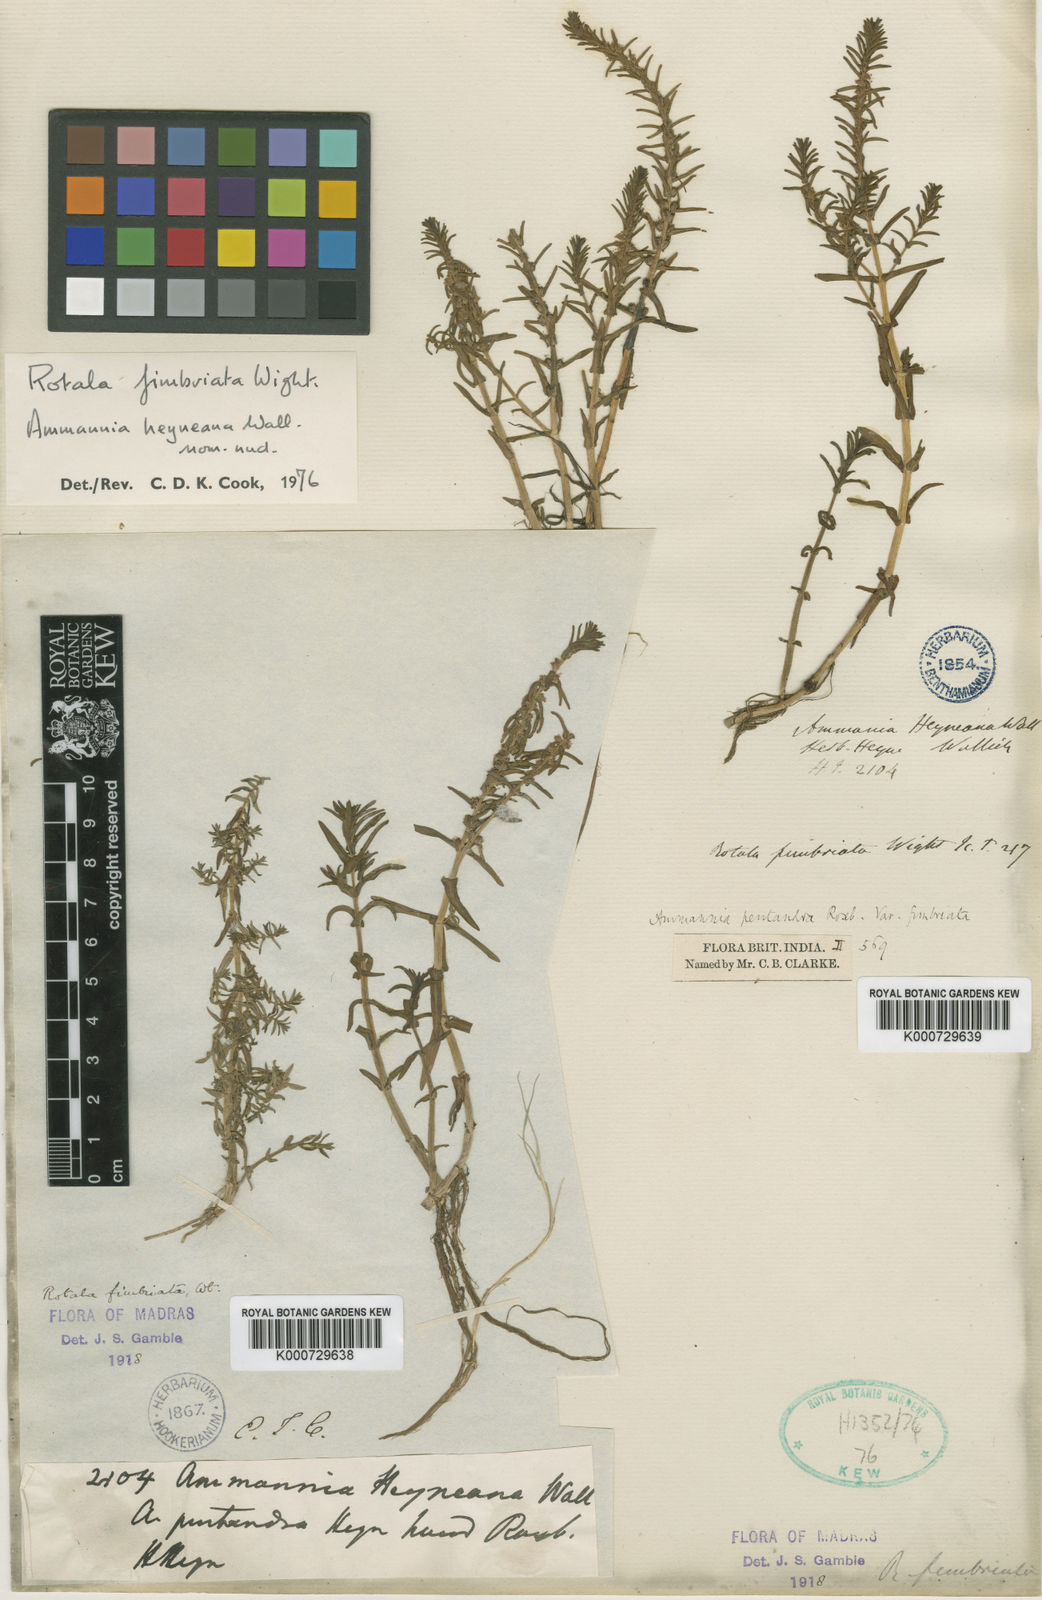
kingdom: Plantae
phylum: Tracheophyta
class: Magnoliopsida
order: Myrtales
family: Lythraceae
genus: Rotala
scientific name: Rotala fimbriata
